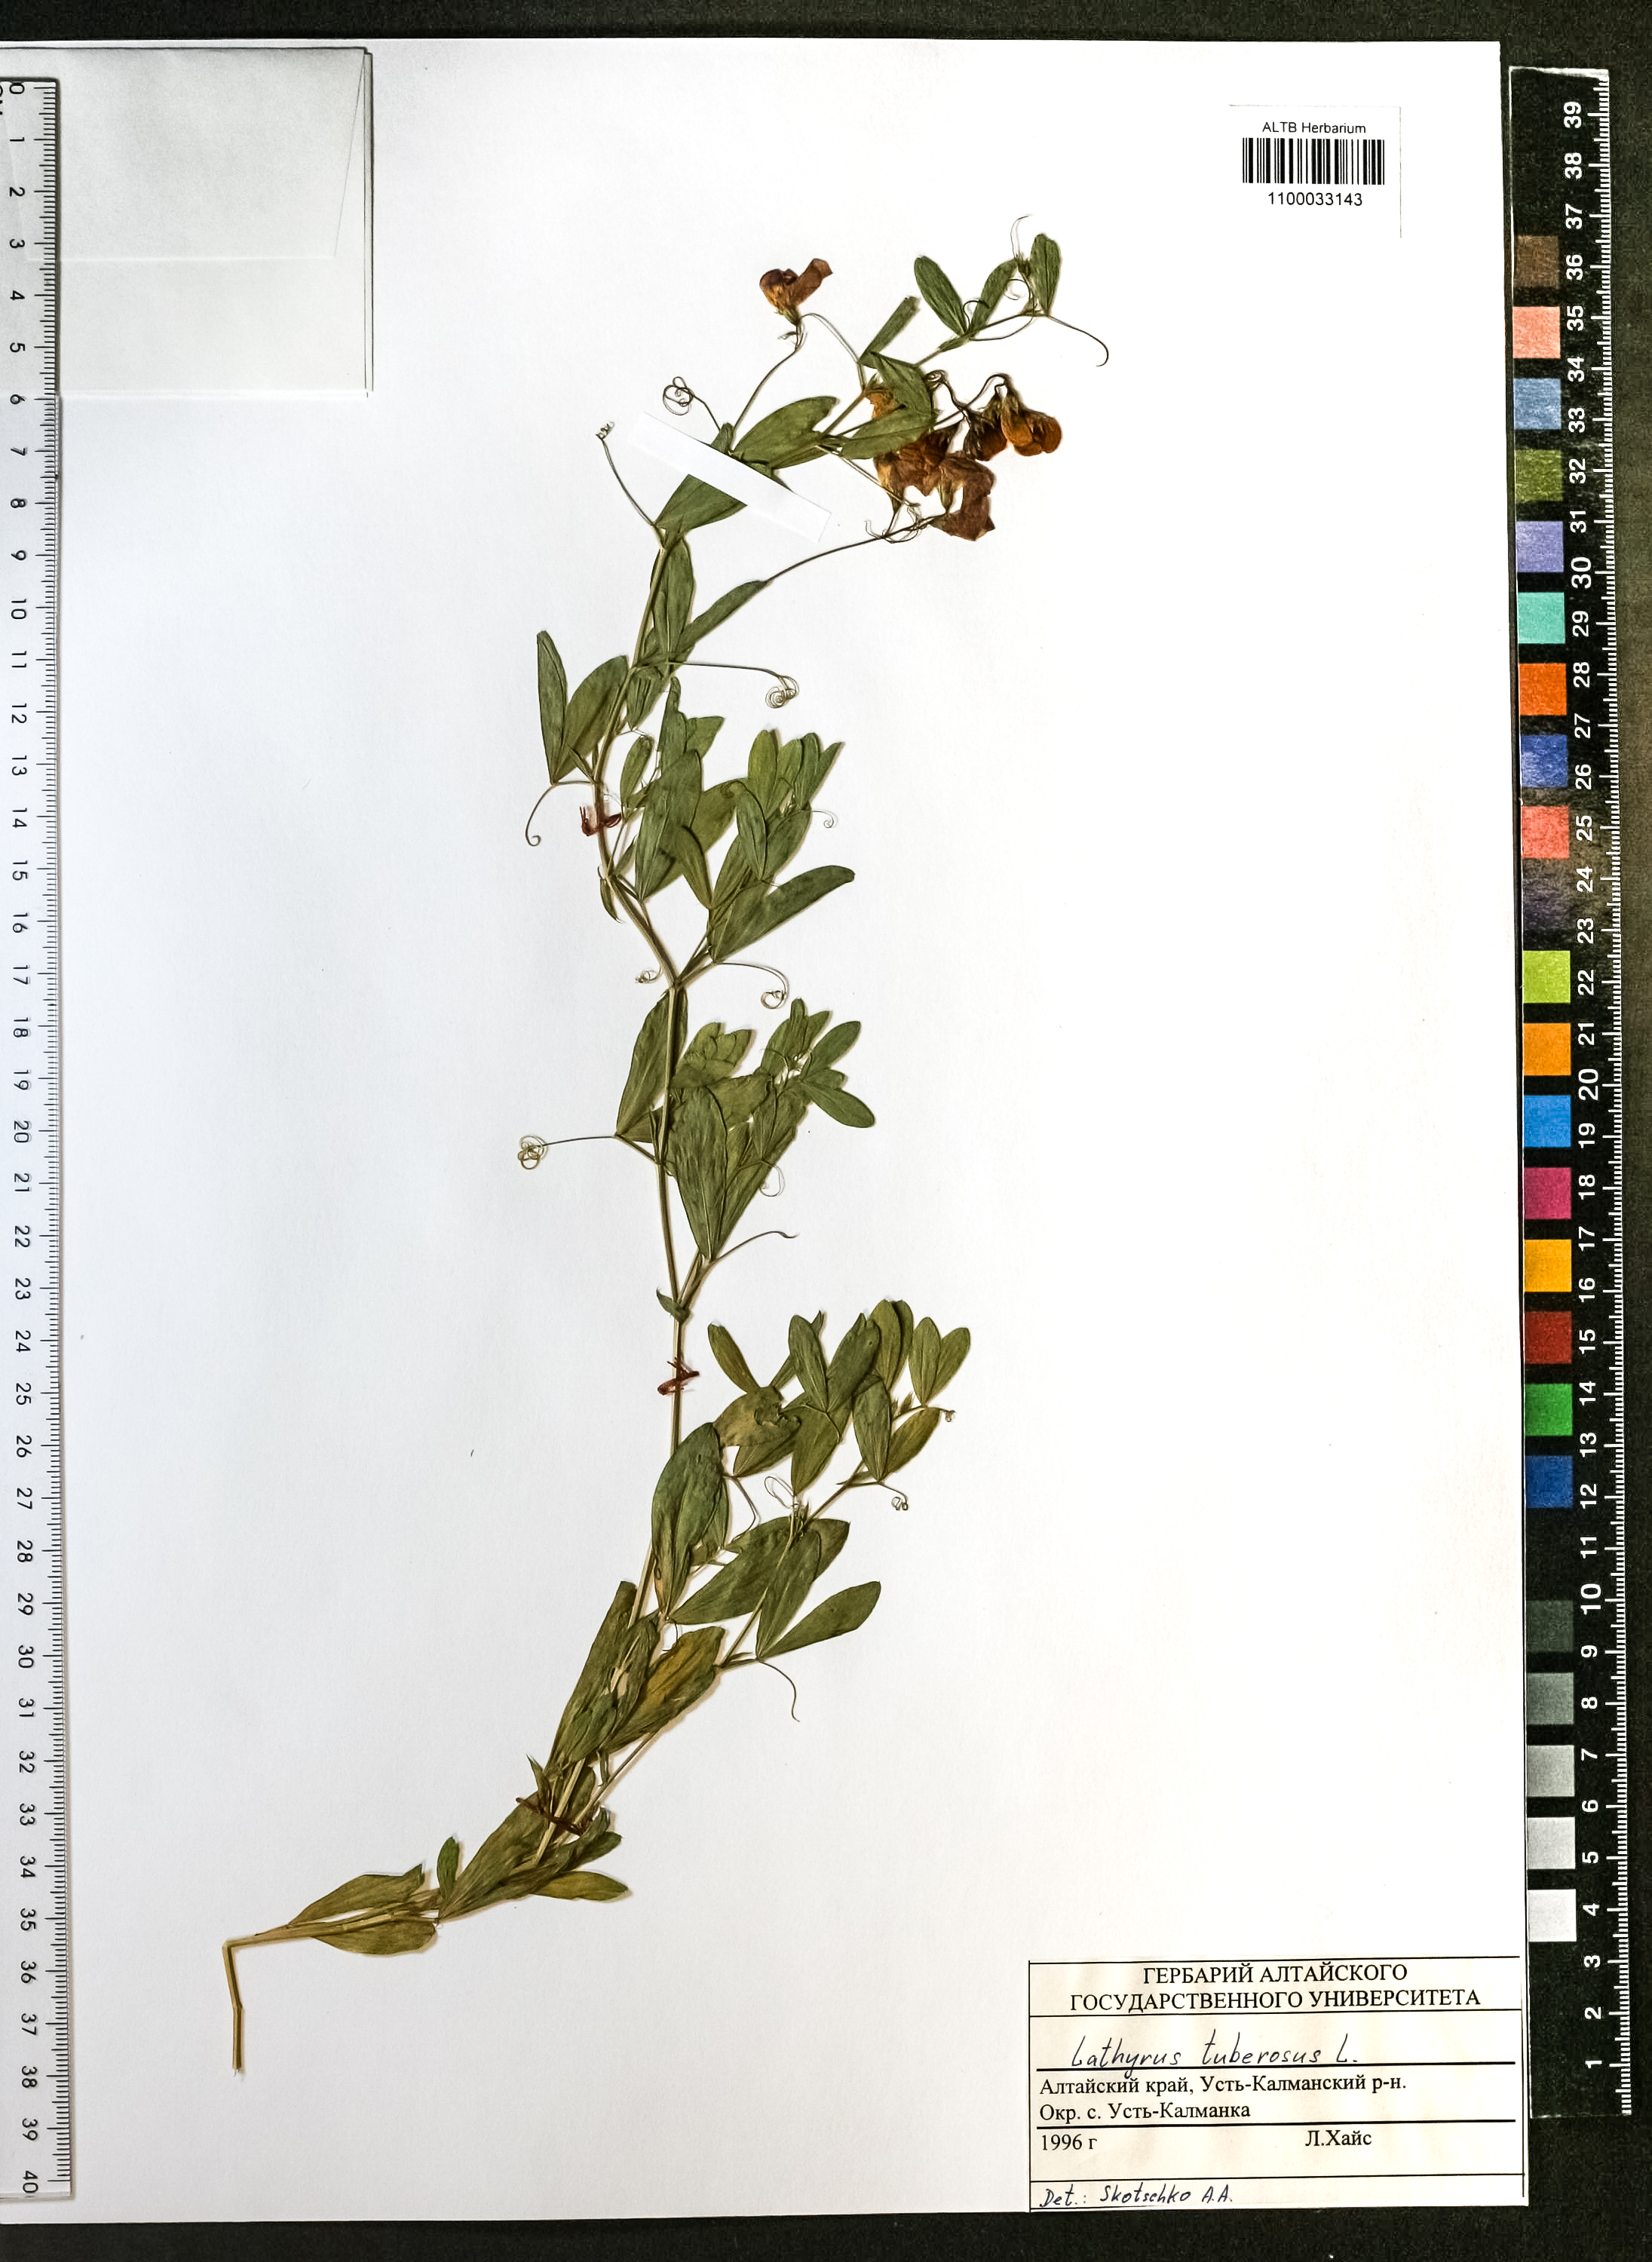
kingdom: Plantae
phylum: Tracheophyta
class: Magnoliopsida
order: Fabales
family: Fabaceae
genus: Lathyrus
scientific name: Lathyrus tuberosus
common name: Tuberous pea
